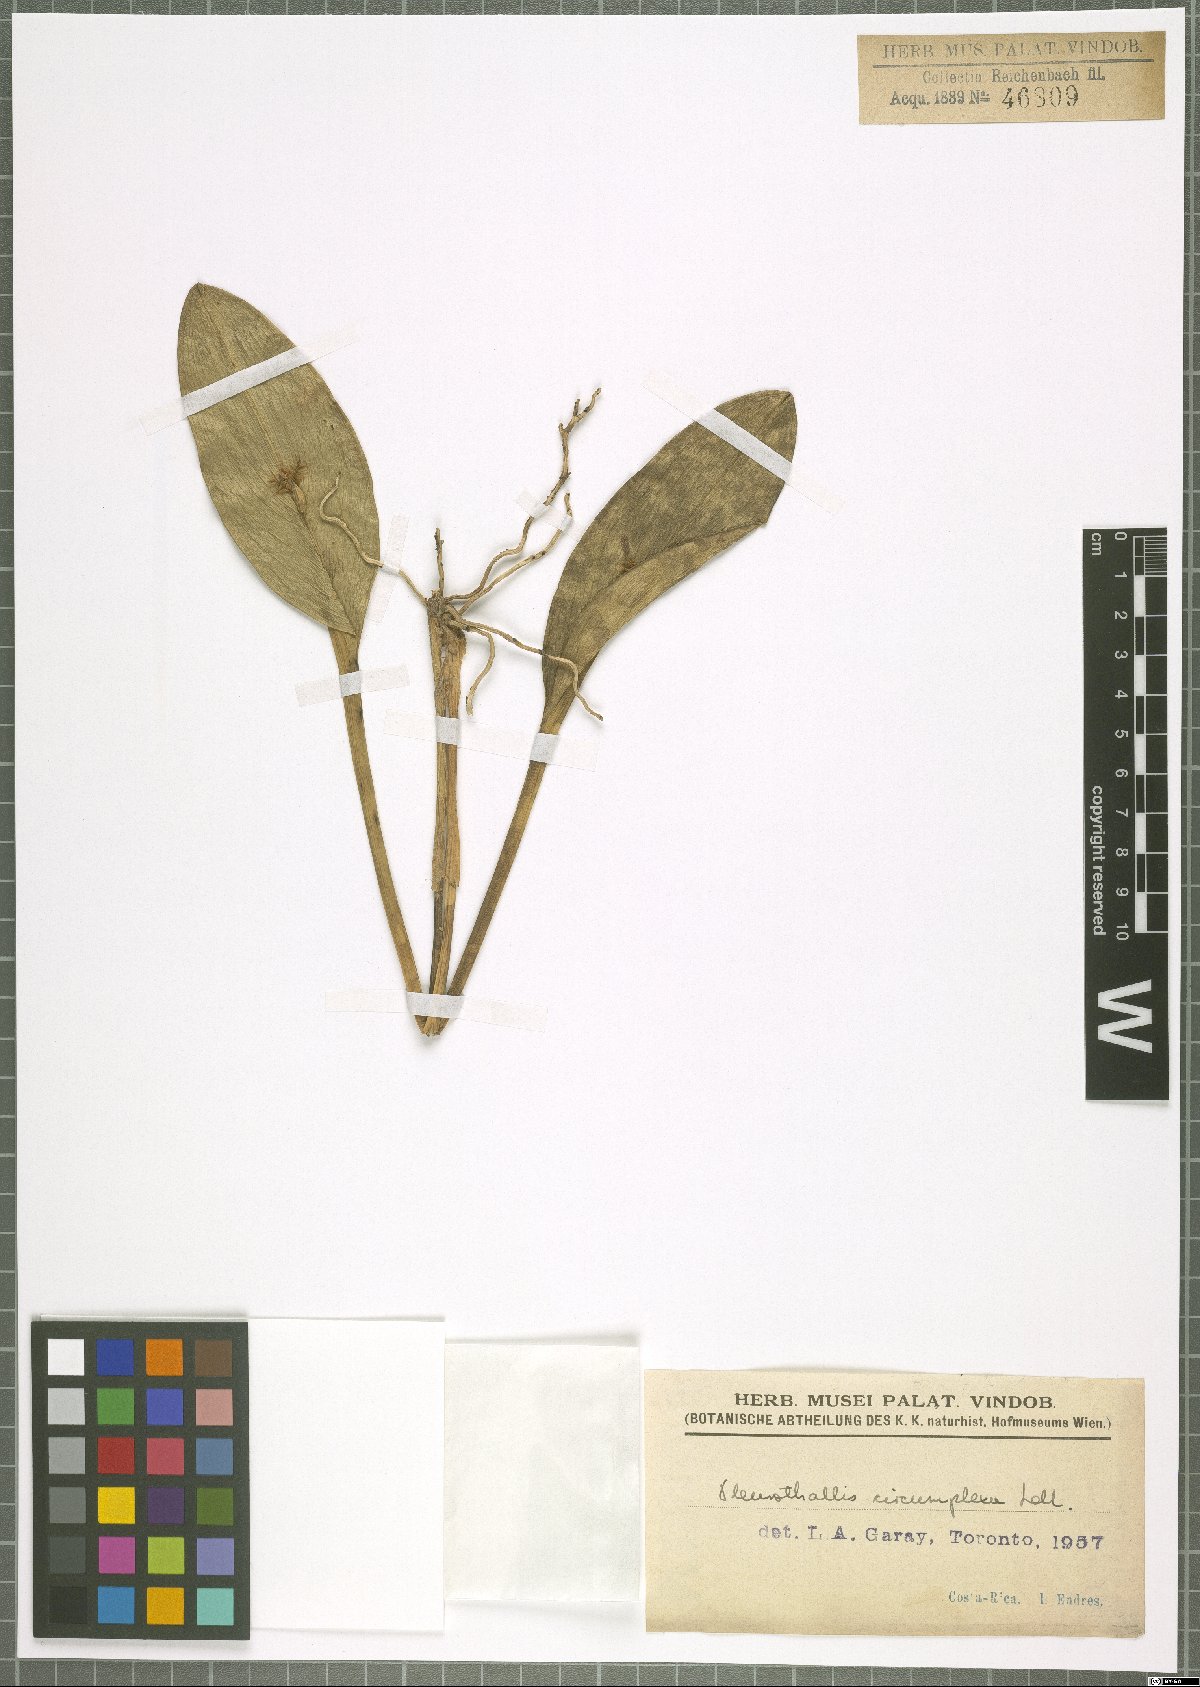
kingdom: Plantae
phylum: Tracheophyta
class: Liliopsida
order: Asparagales
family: Orchidaceae
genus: Acianthera
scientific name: Acianthera circumplexa
